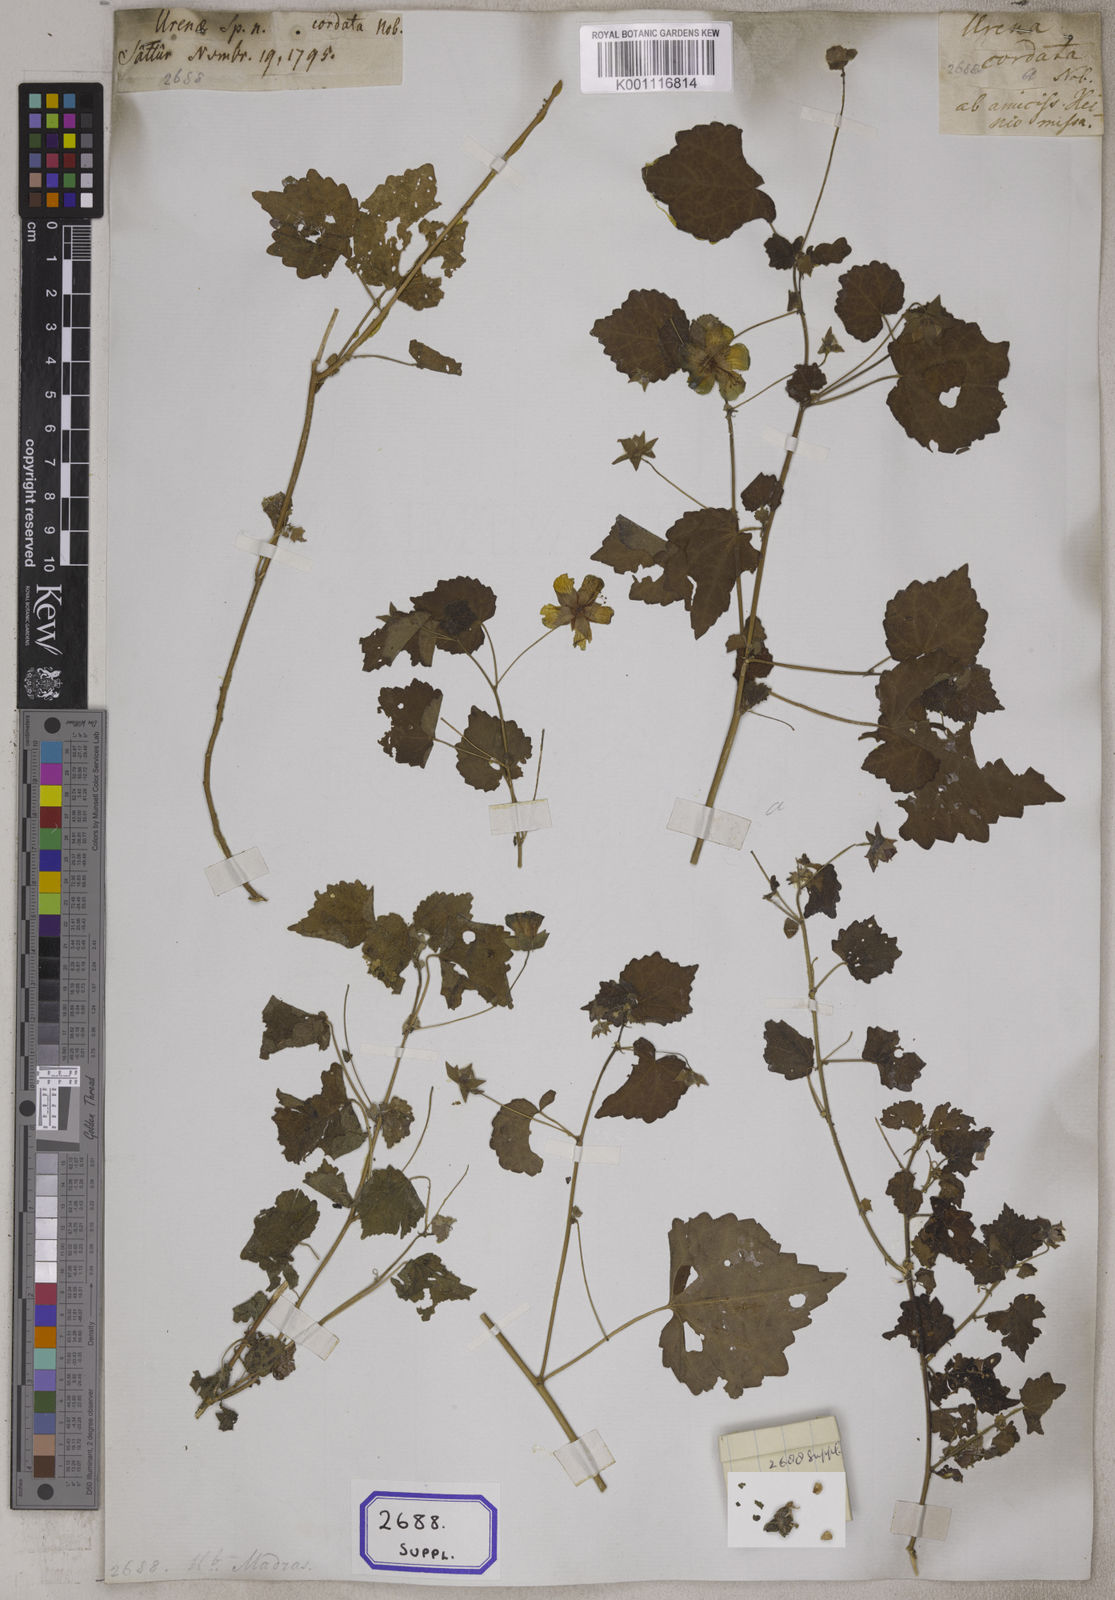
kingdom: Plantae
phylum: Tracheophyta
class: Magnoliopsida
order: Malvales
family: Malvaceae
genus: Pavonia
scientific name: Pavonia procumbens
